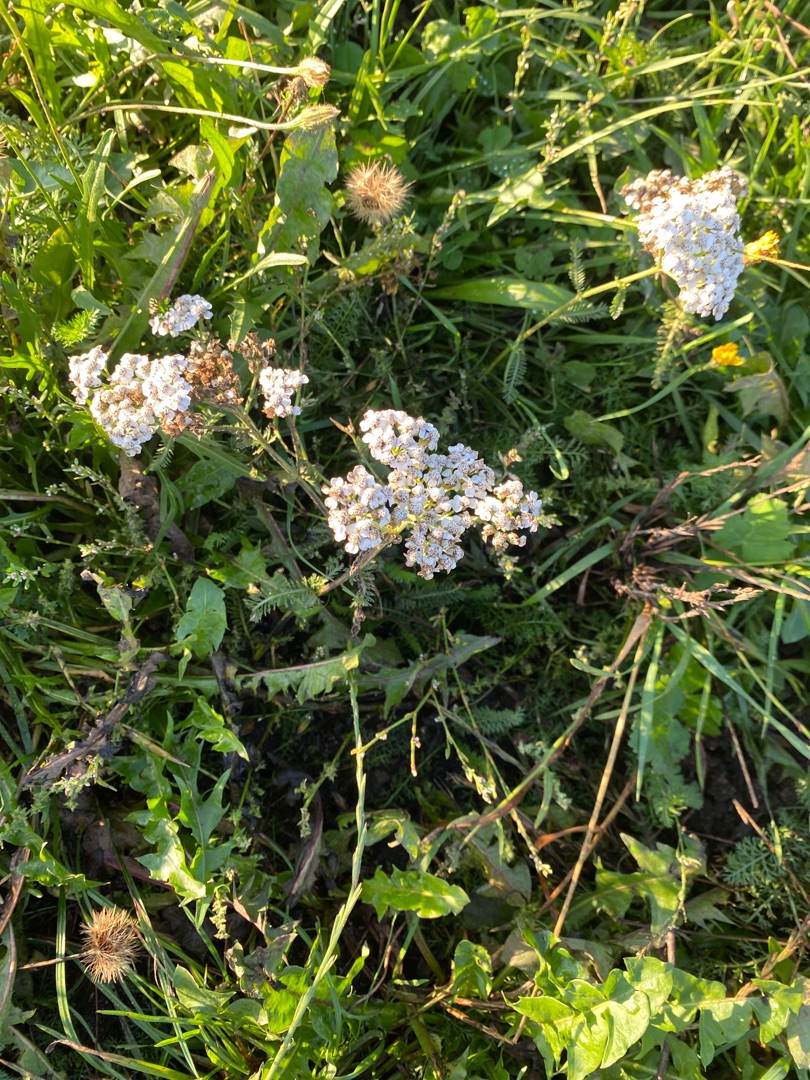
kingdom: Plantae
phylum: Tracheophyta
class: Magnoliopsida
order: Asterales
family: Asteraceae
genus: Achillea
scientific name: Achillea millefolium
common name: Almindelig røllike
